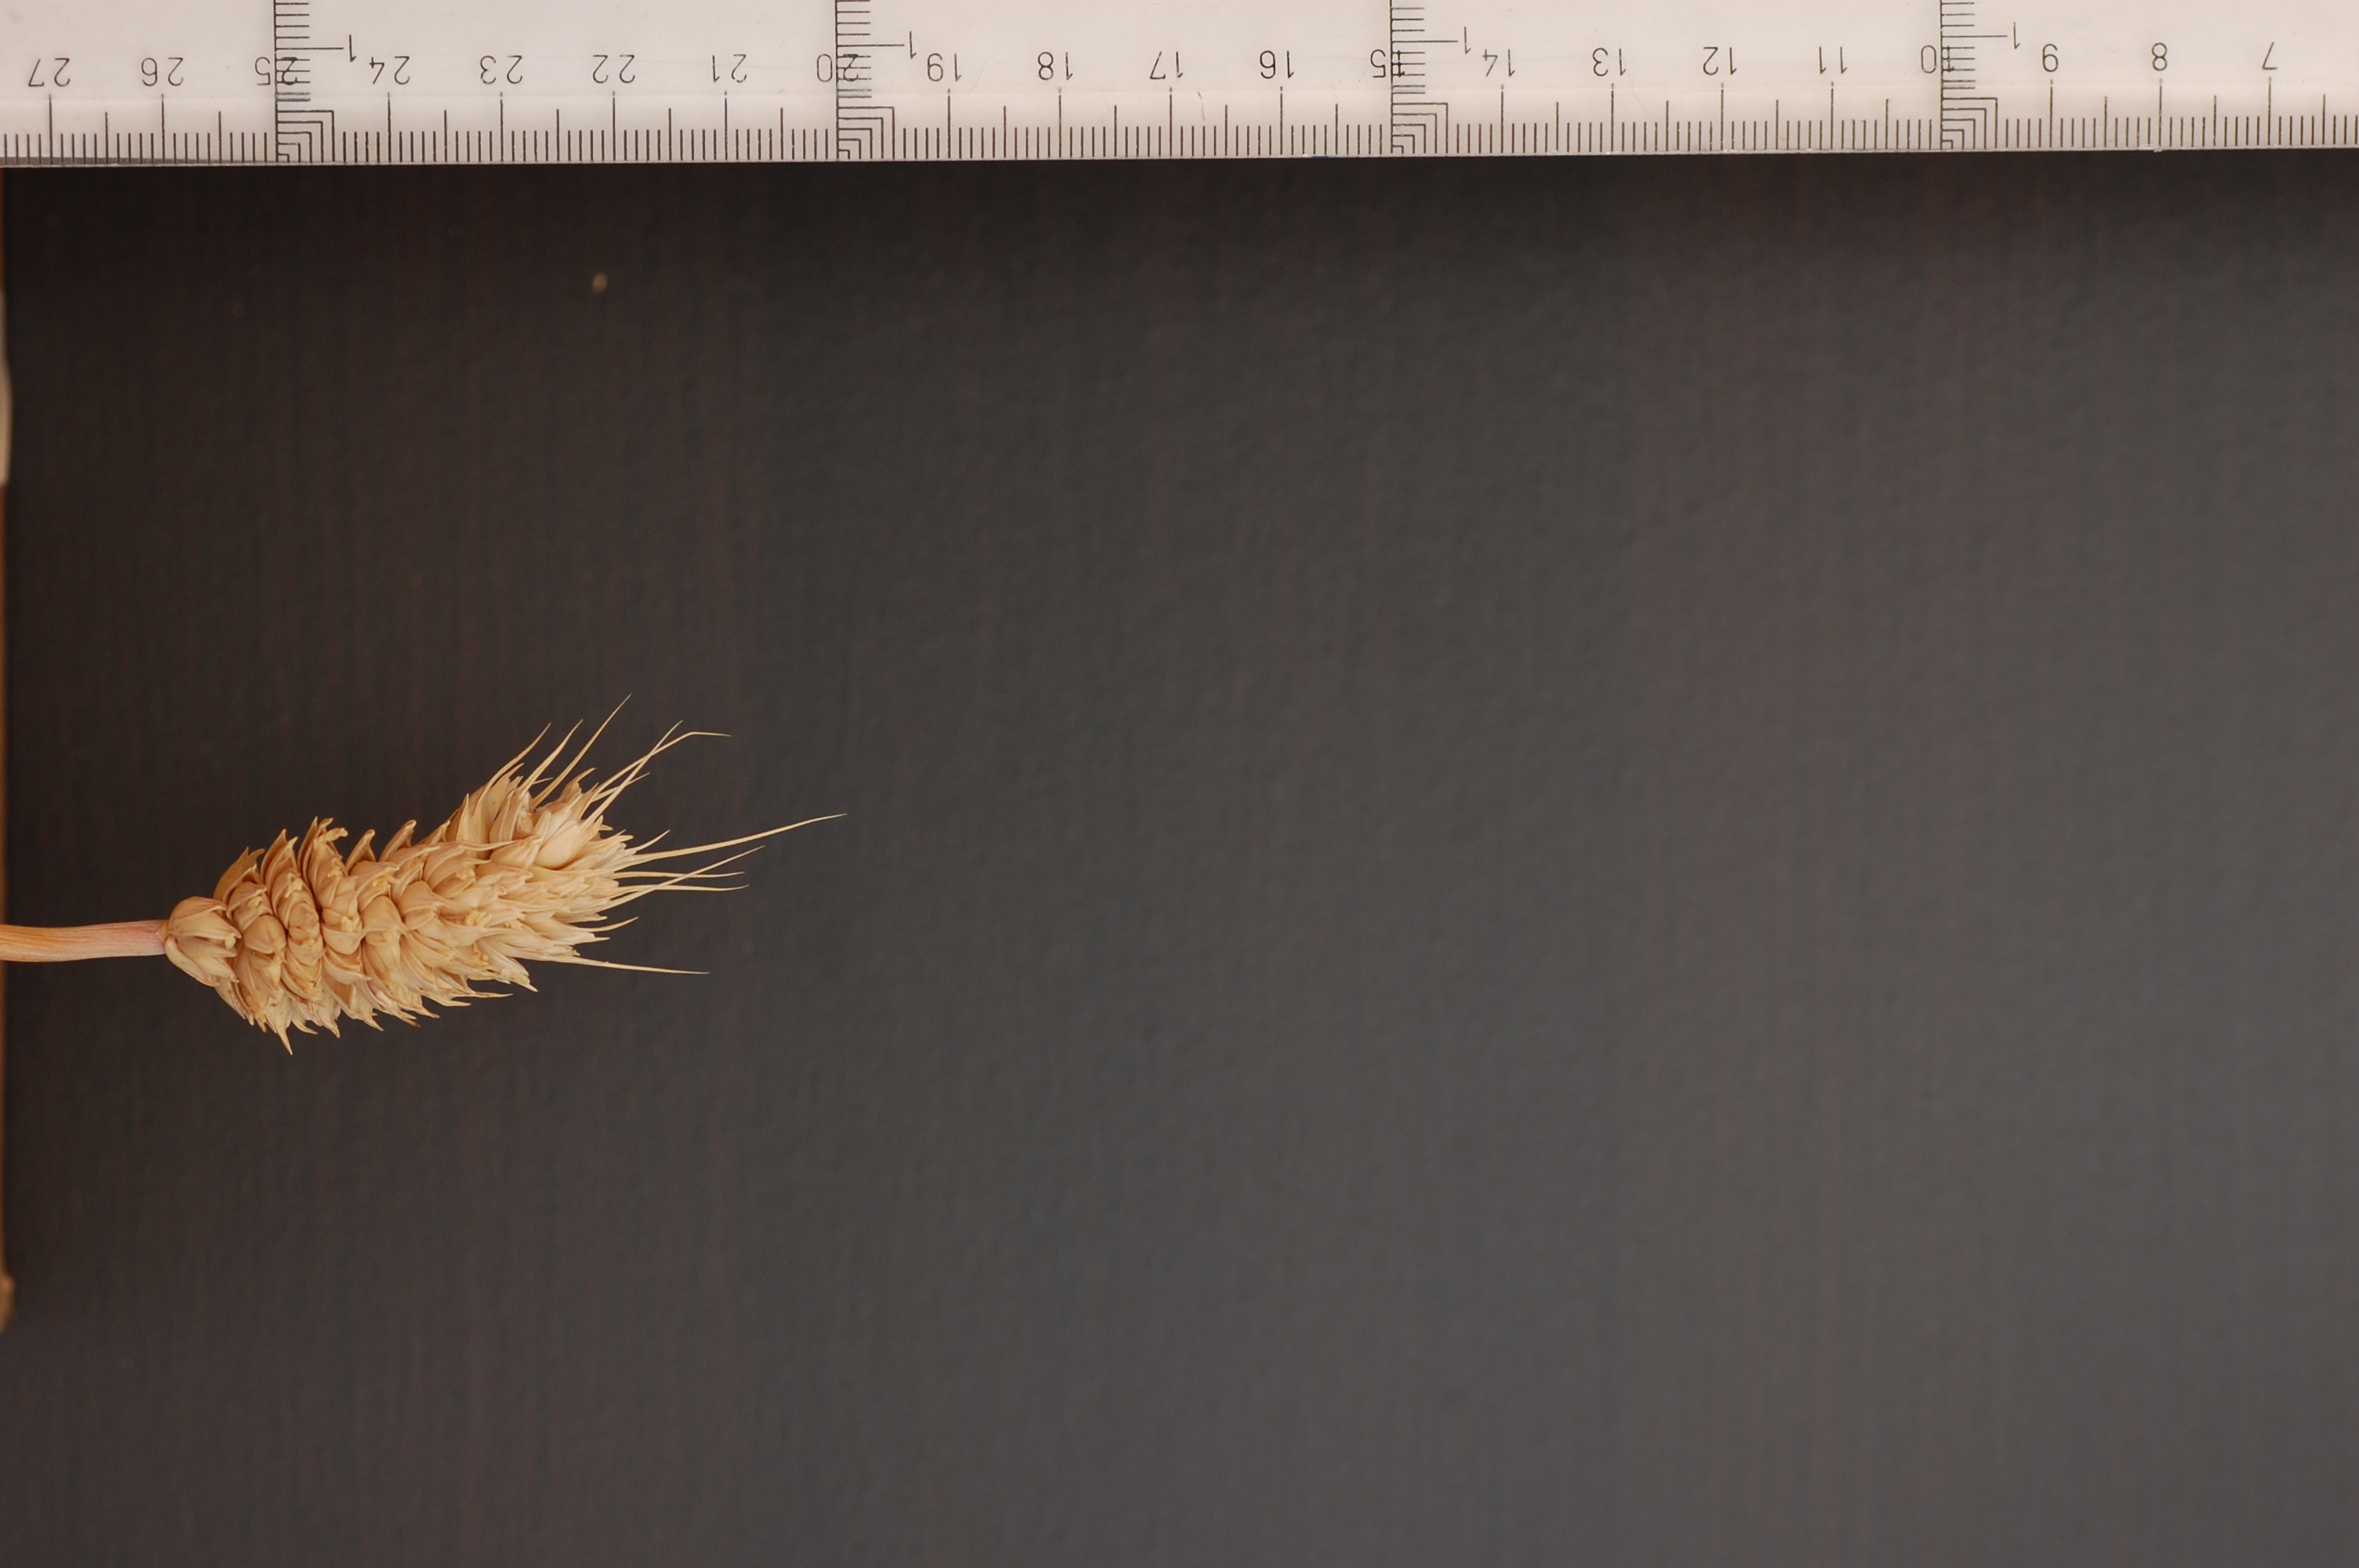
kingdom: Plantae
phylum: Tracheophyta
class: Liliopsida
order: Poales
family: Poaceae
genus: Triticum
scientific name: Triticum aestivum
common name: Common wheat
